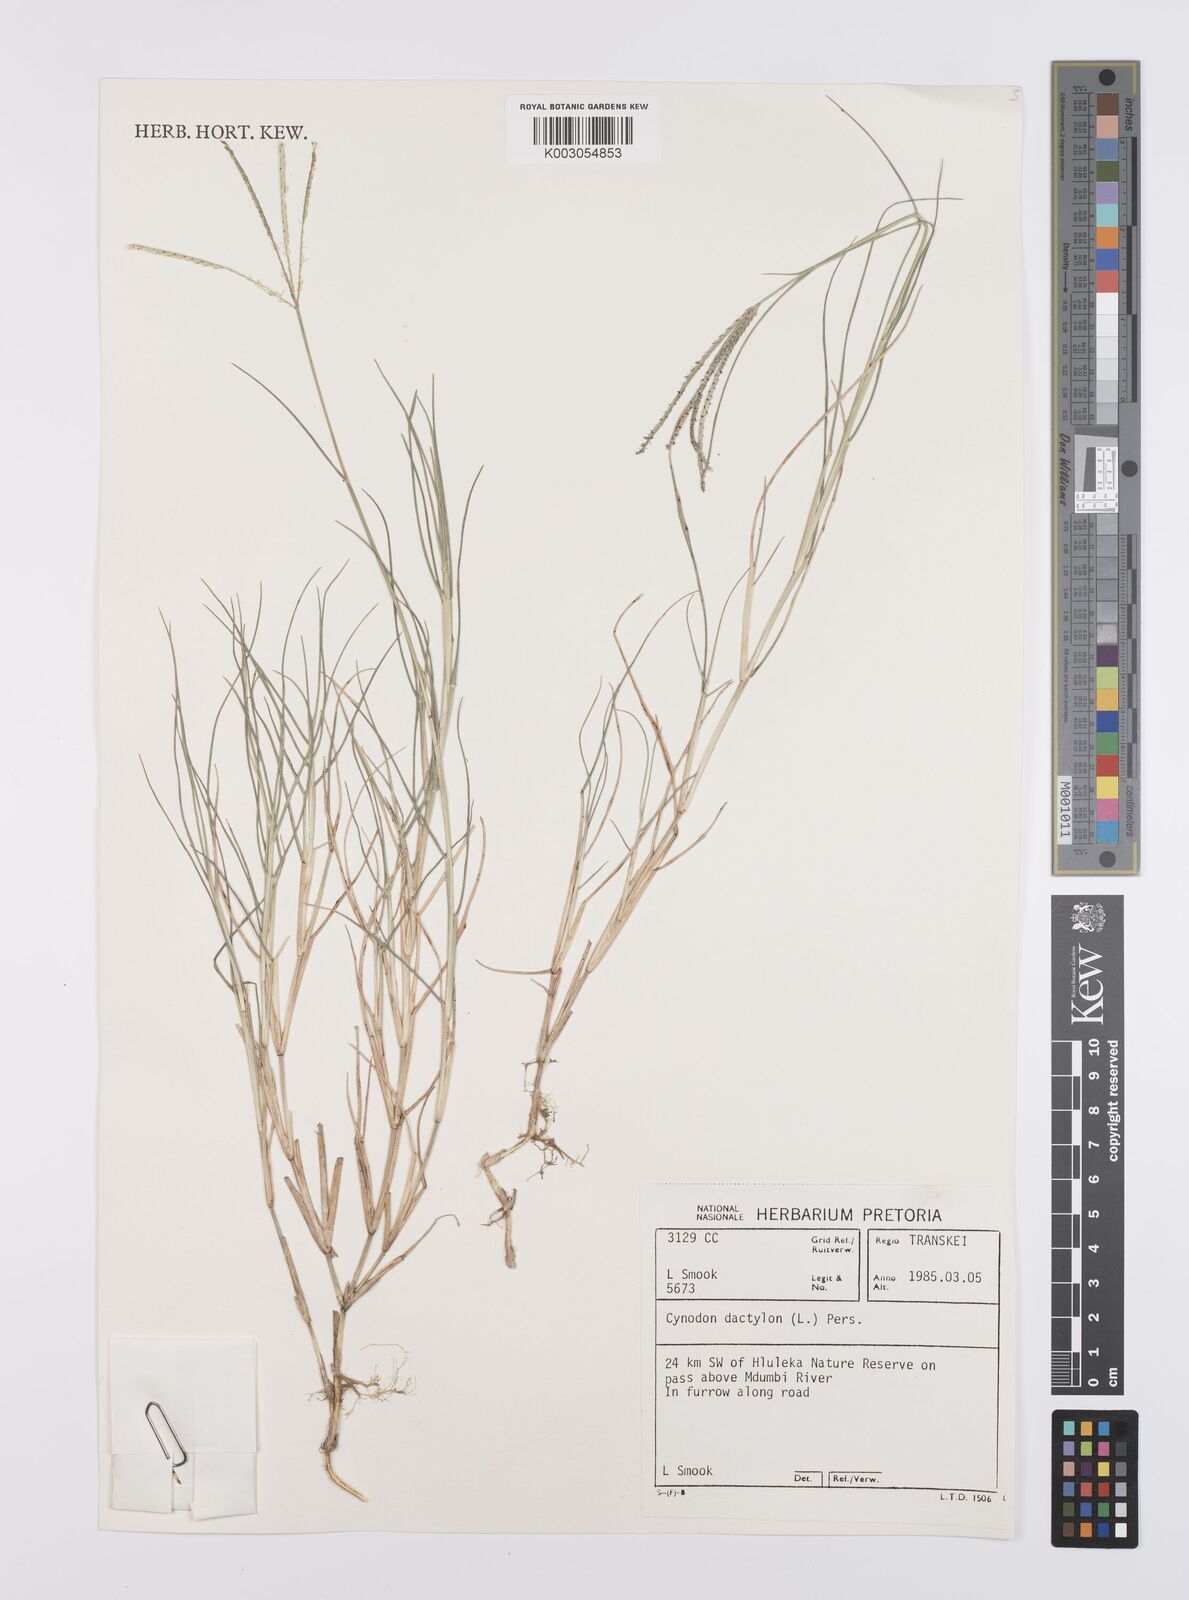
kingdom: Plantae
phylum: Tracheophyta
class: Liliopsida
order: Poales
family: Poaceae
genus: Cynodon
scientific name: Cynodon dactylon
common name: Bermuda grass
